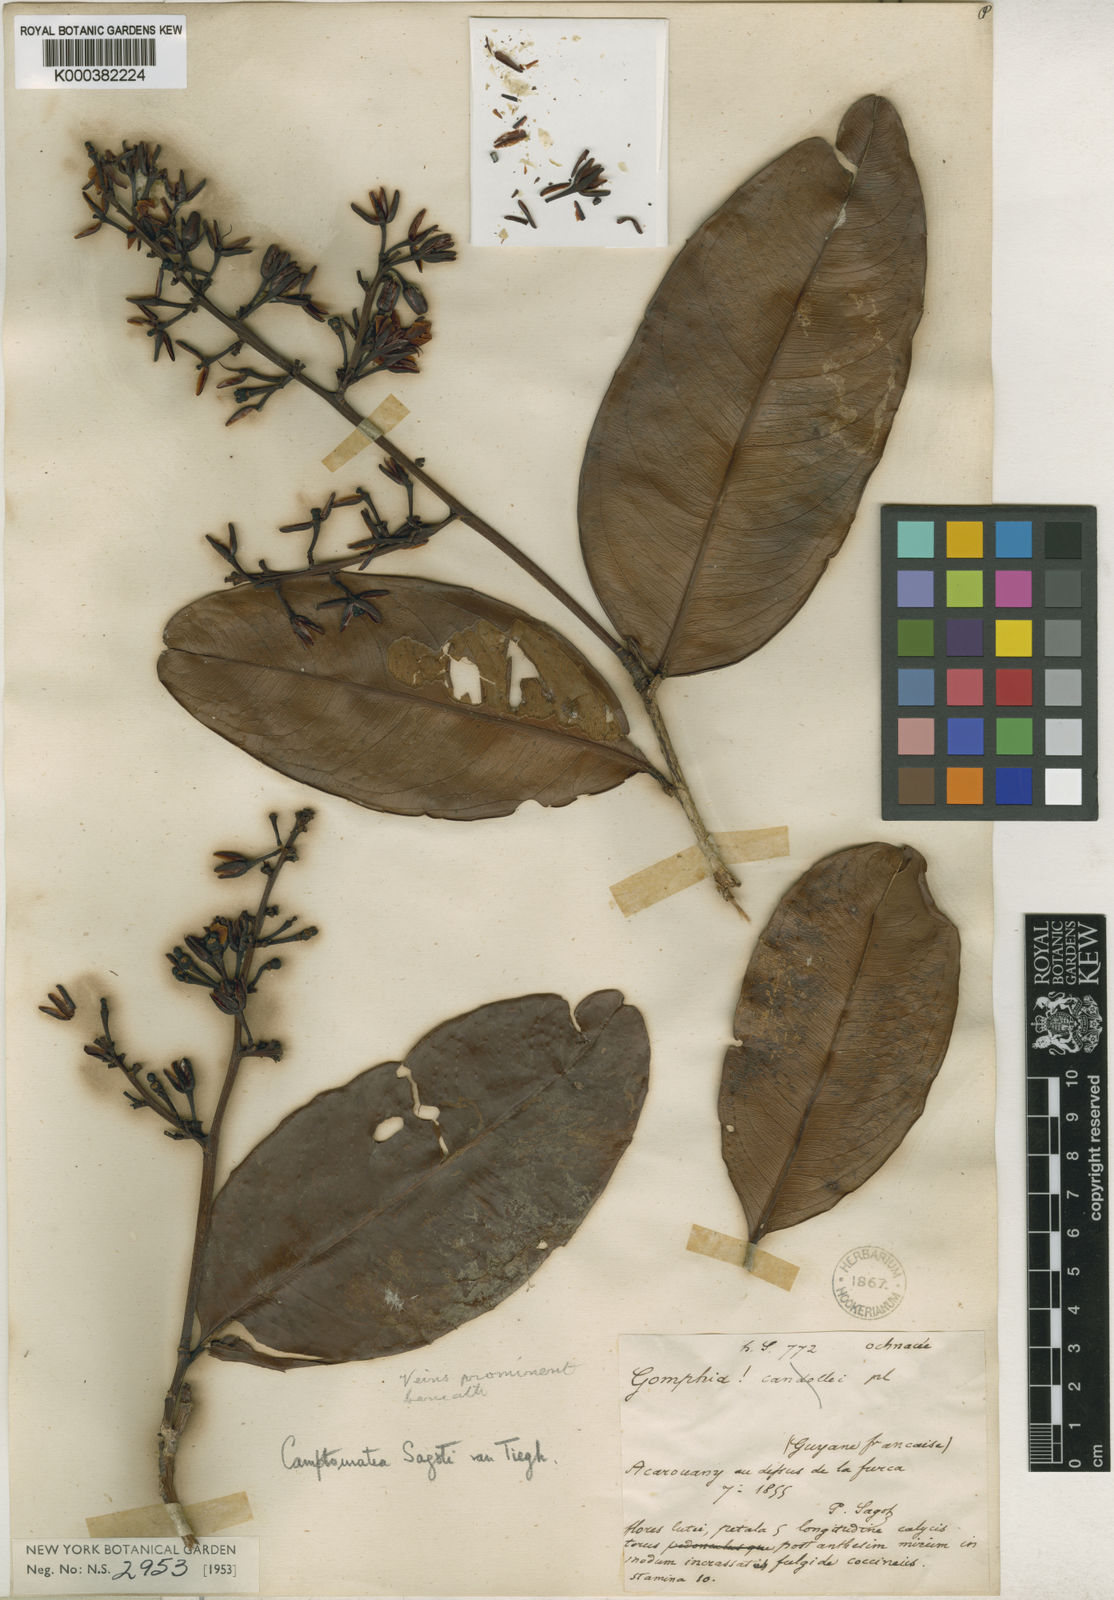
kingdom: Plantae
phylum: Tracheophyta
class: Magnoliopsida
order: Malpighiales
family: Ochnaceae
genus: Ouratea
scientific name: Ouratea
